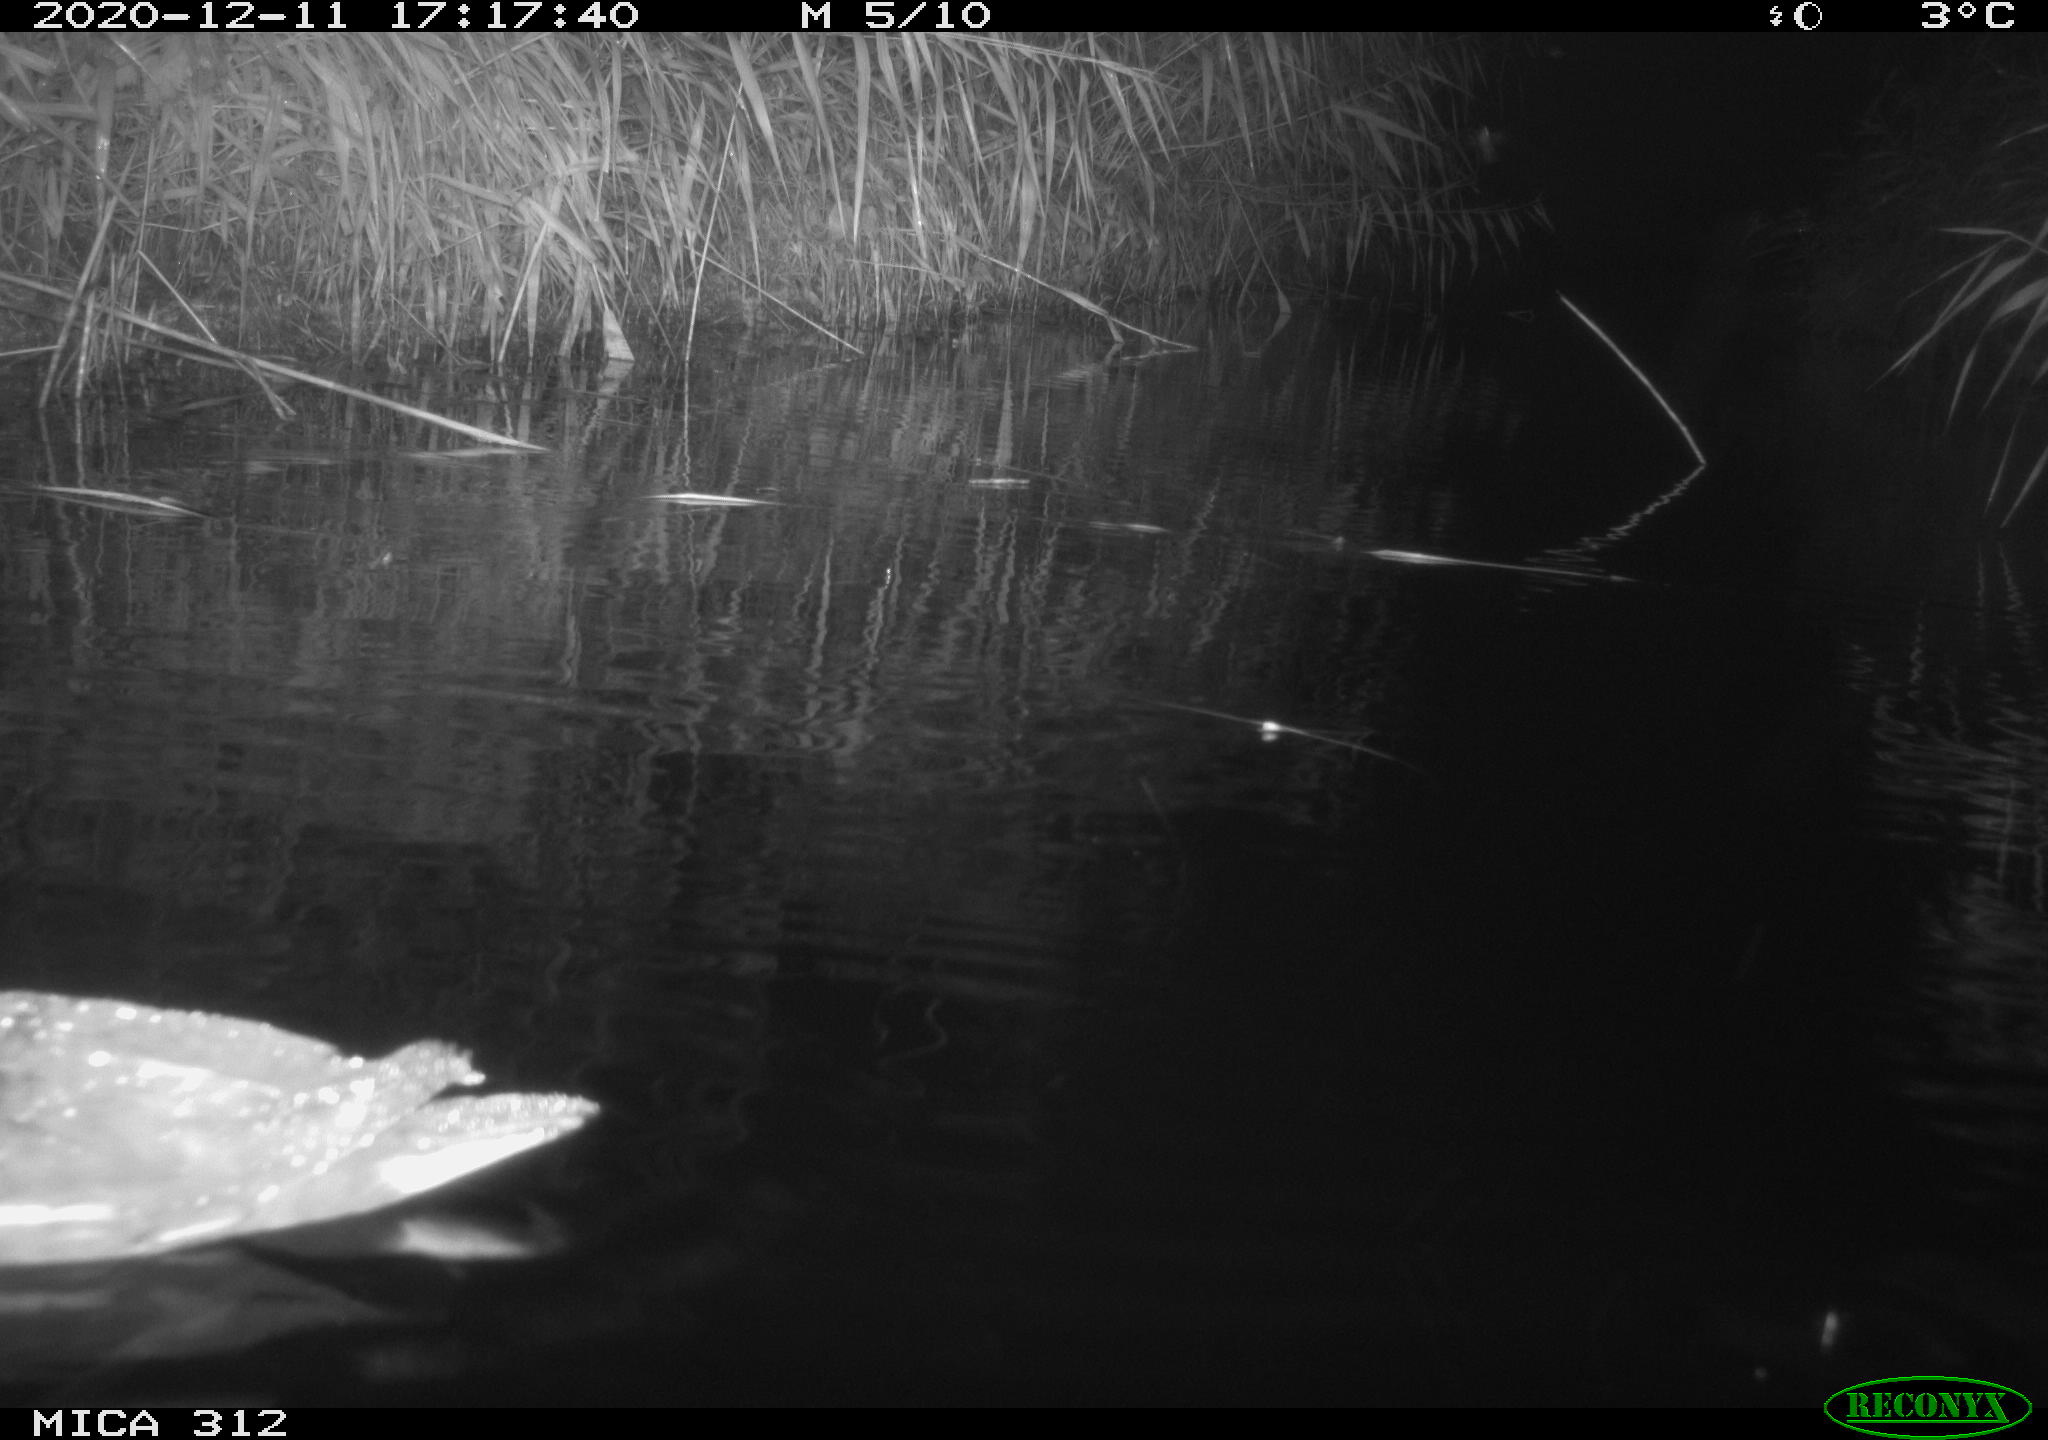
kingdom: Animalia
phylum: Chordata
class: Aves
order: Gruiformes
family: Rallidae
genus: Gallinula
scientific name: Gallinula chloropus
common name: Common moorhen
